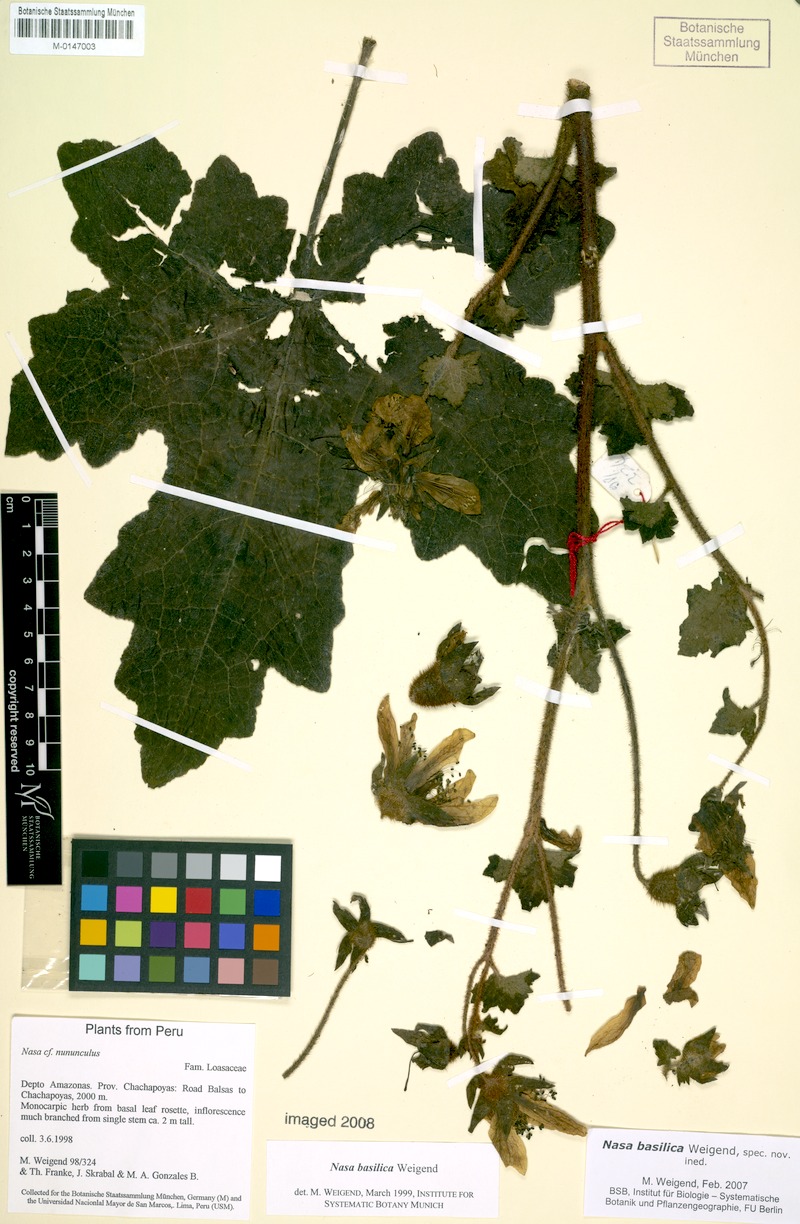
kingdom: Plantae
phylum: Tracheophyta
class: Magnoliopsida
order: Cornales
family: Loasaceae
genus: Nasa
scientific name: Nasa basilica
